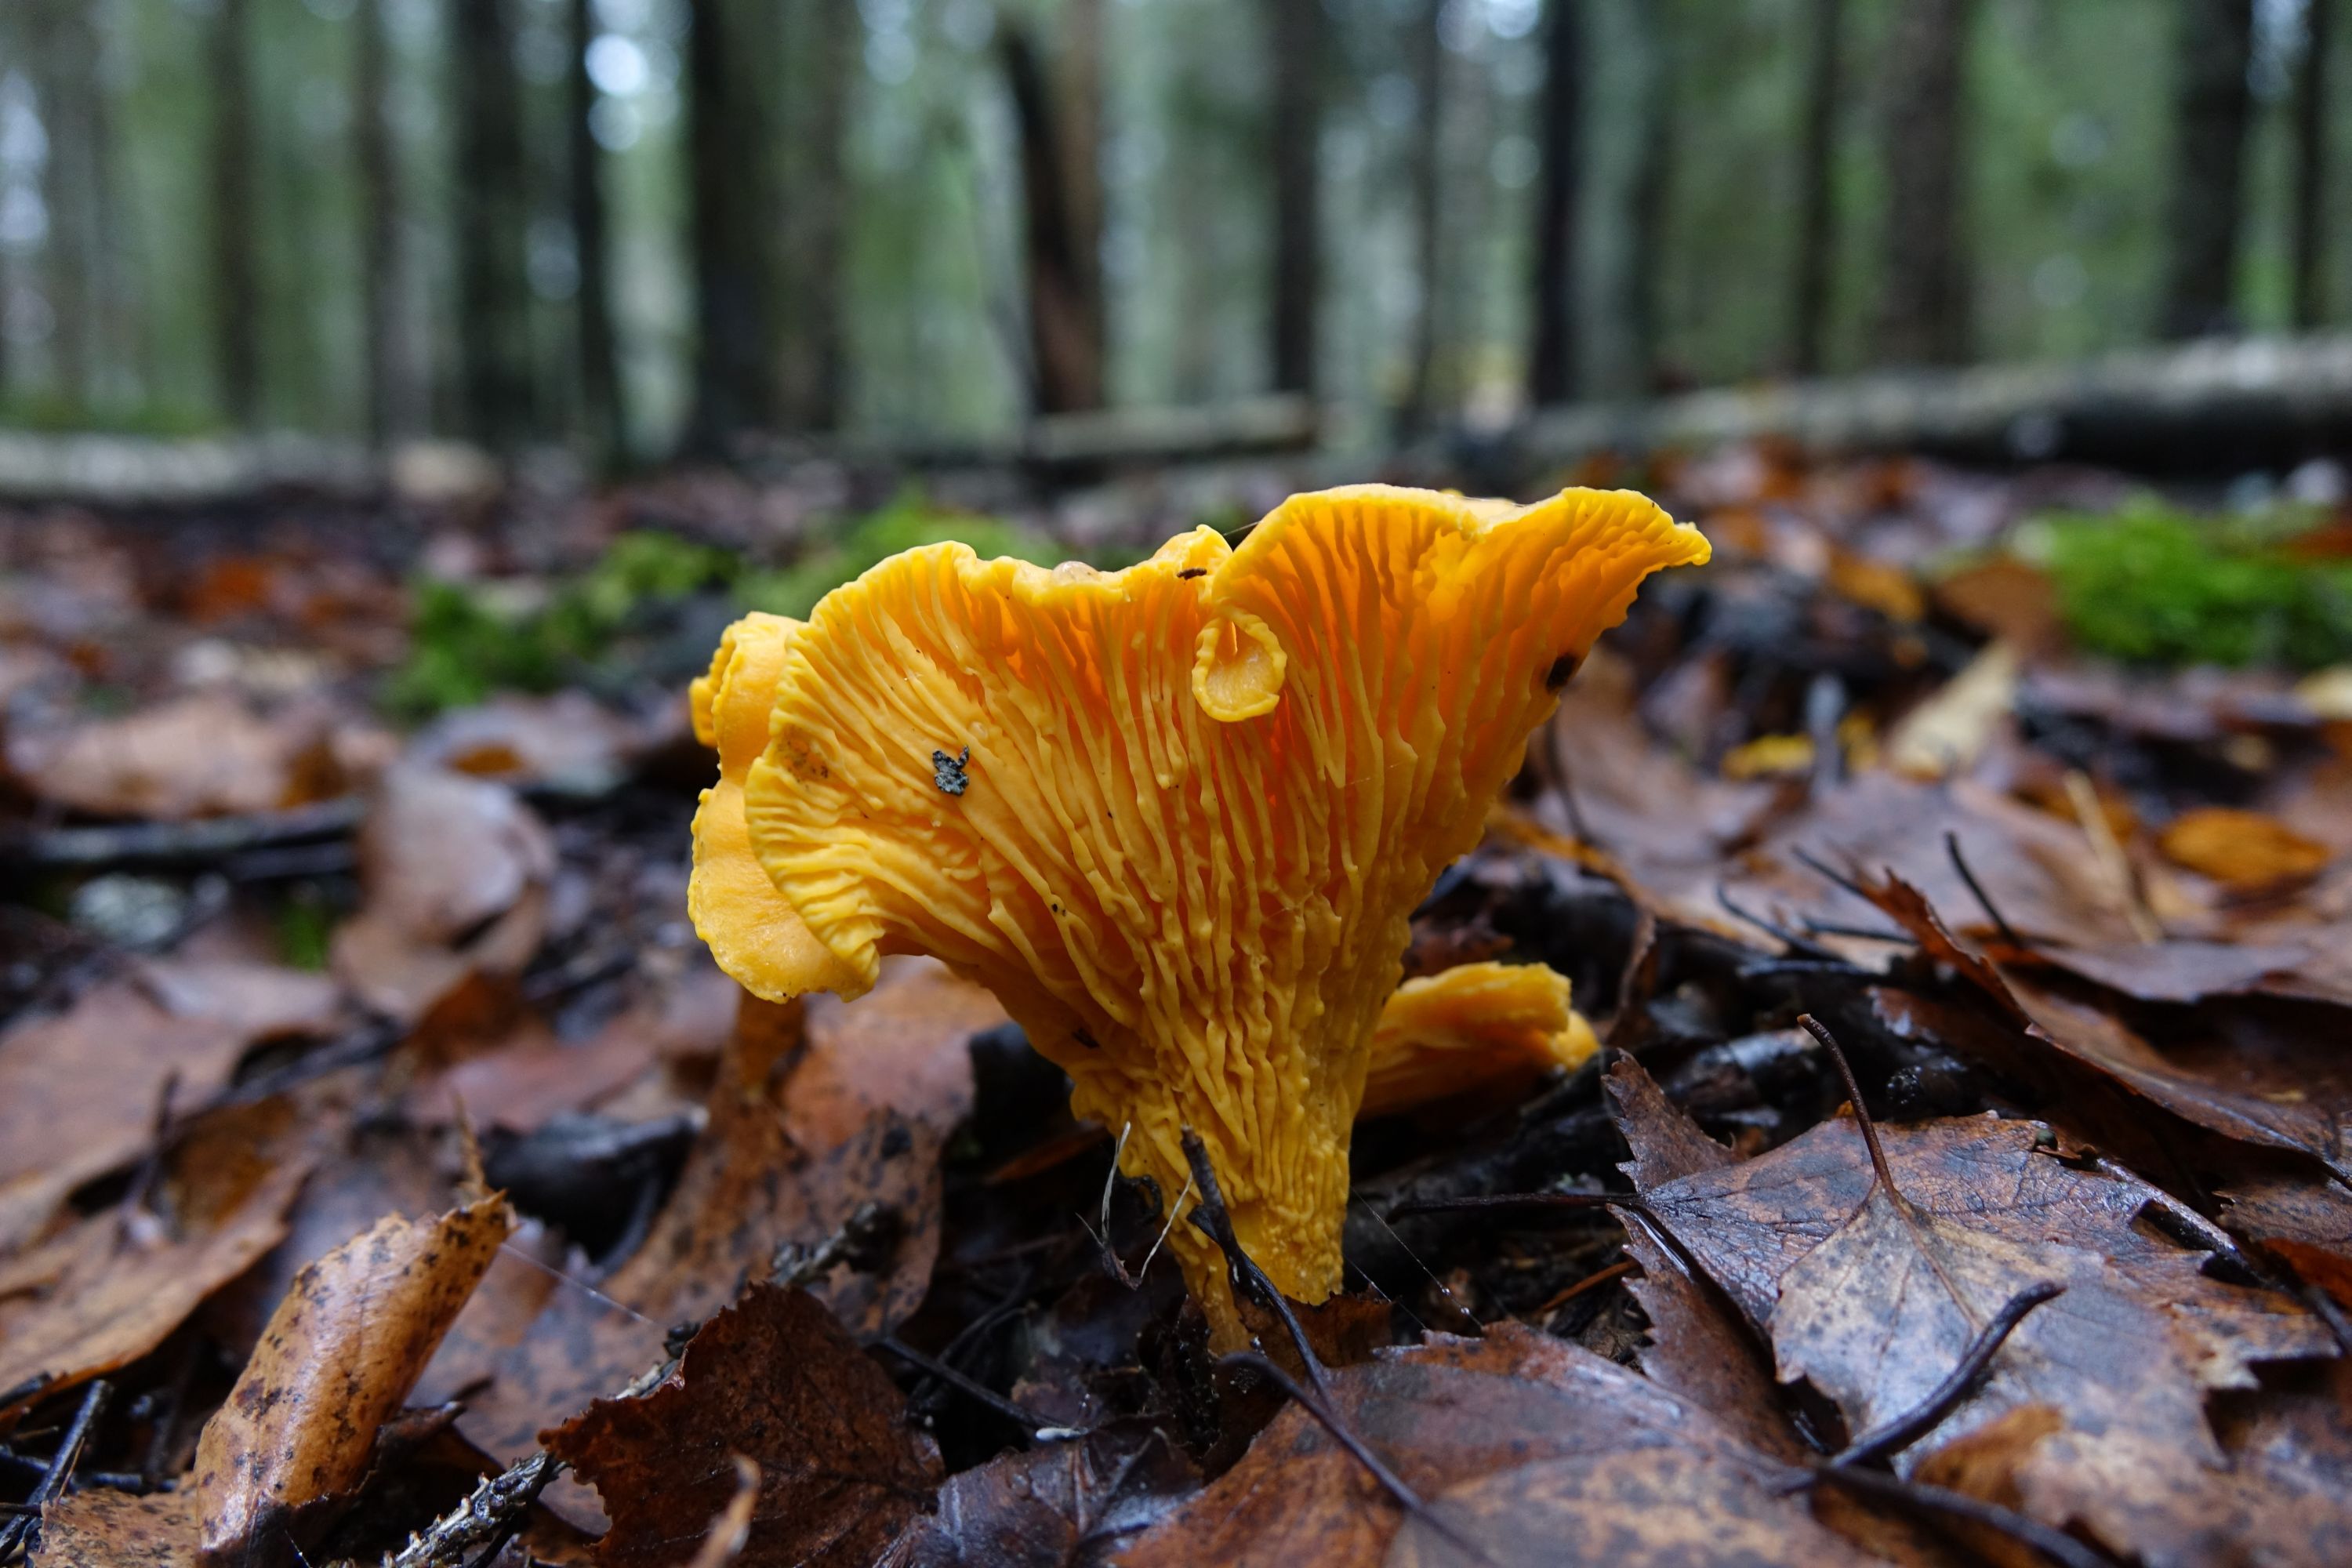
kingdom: Fungi
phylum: Basidiomycota
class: Agaricomycetes
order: Cantharellales
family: Hydnaceae
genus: Cantharellus
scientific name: Cantharellus cibarius
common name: Chanterelle
